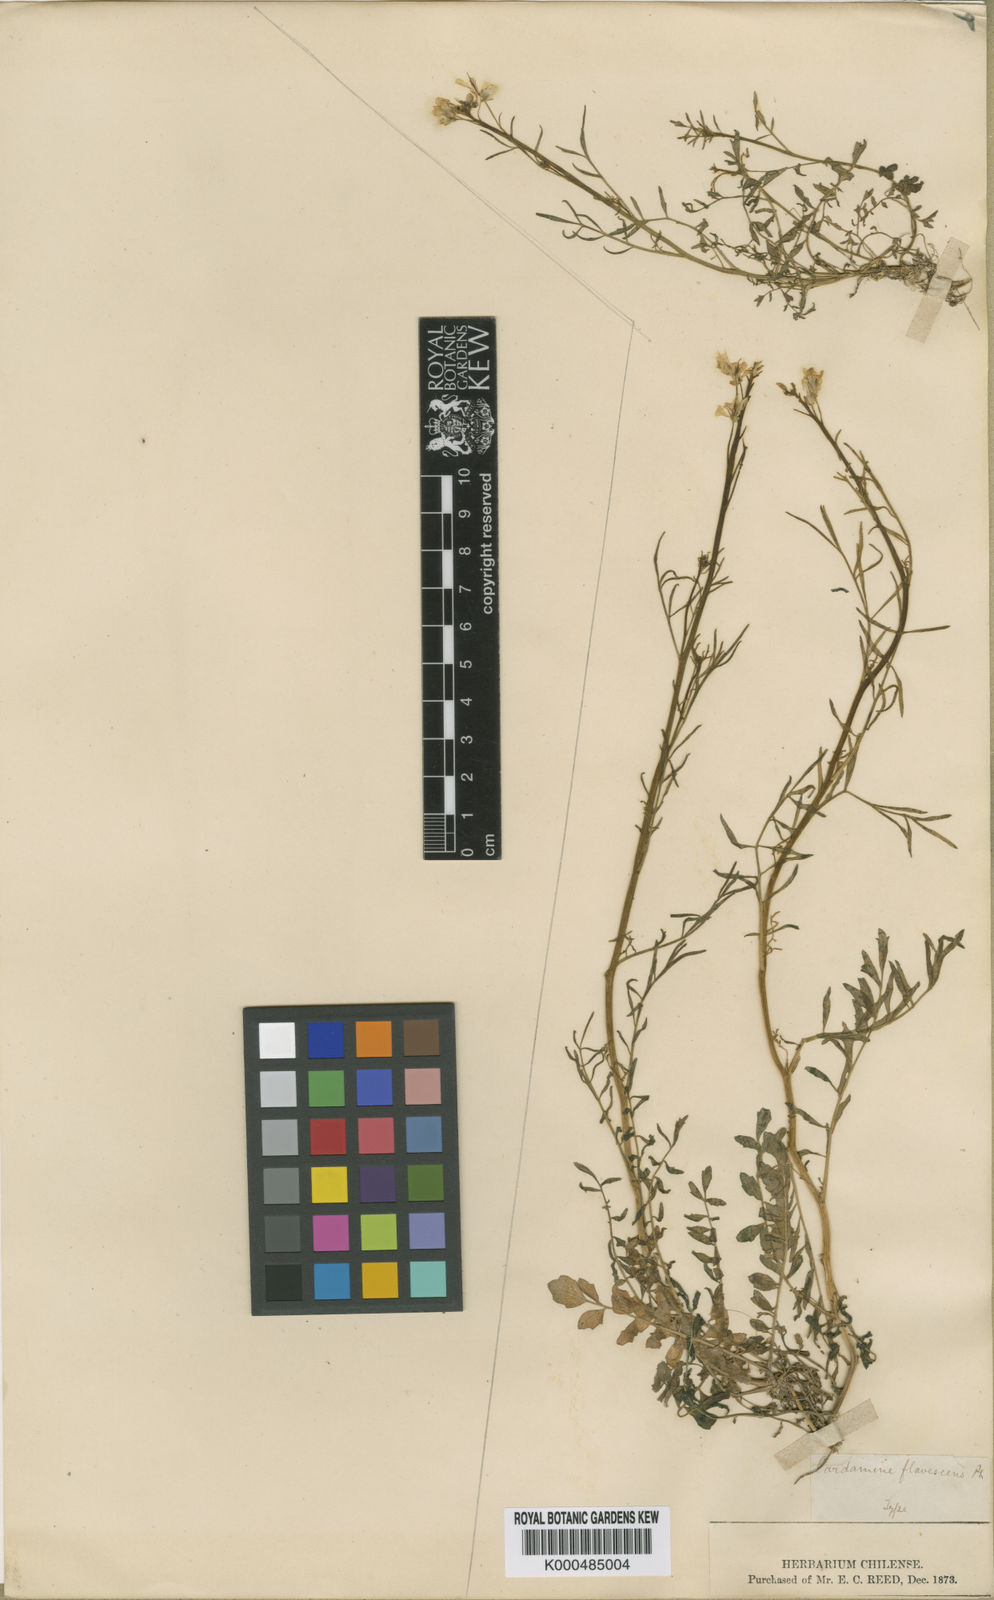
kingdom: Plantae
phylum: Tracheophyta
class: Magnoliopsida
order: Brassicales
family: Brassicaceae
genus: Cardamine
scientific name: Cardamine tenuirostris
